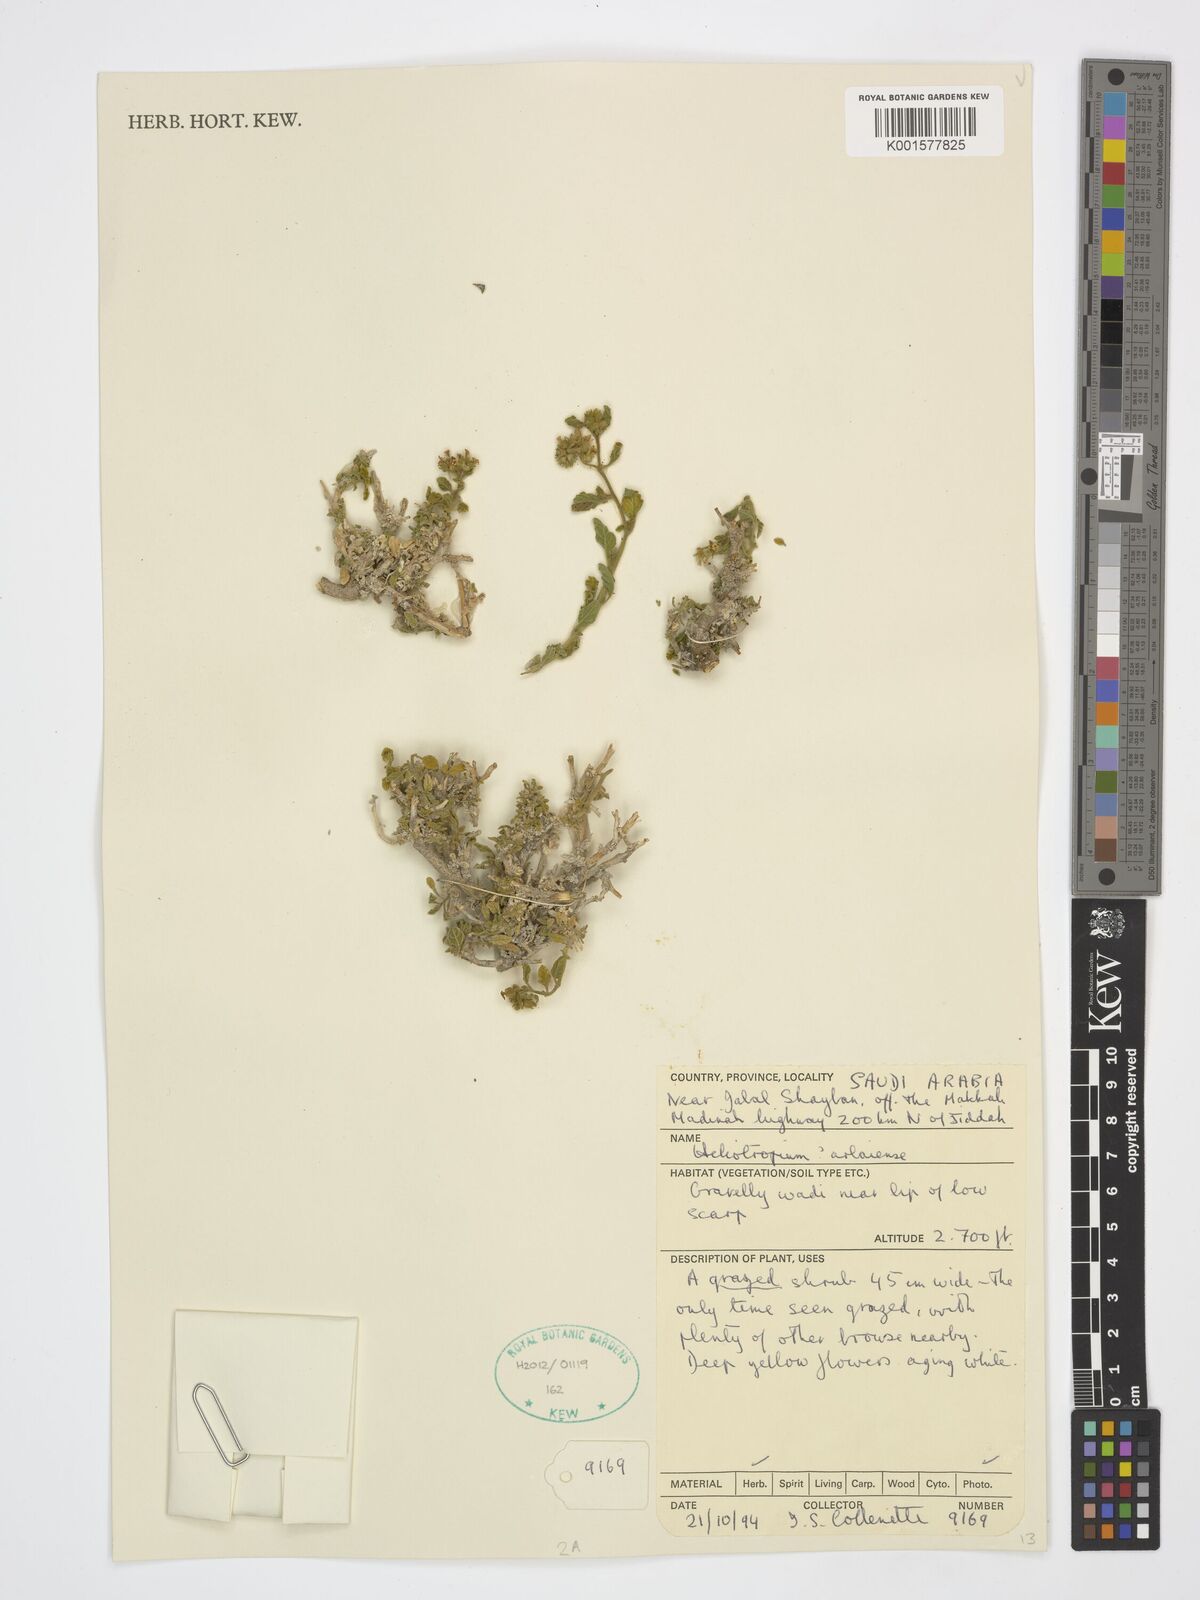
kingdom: Plantae
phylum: Tracheophyta
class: Magnoliopsida
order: Boraginales
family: Heliotropiaceae
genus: Heliotropium
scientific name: Heliotropium arbainense
